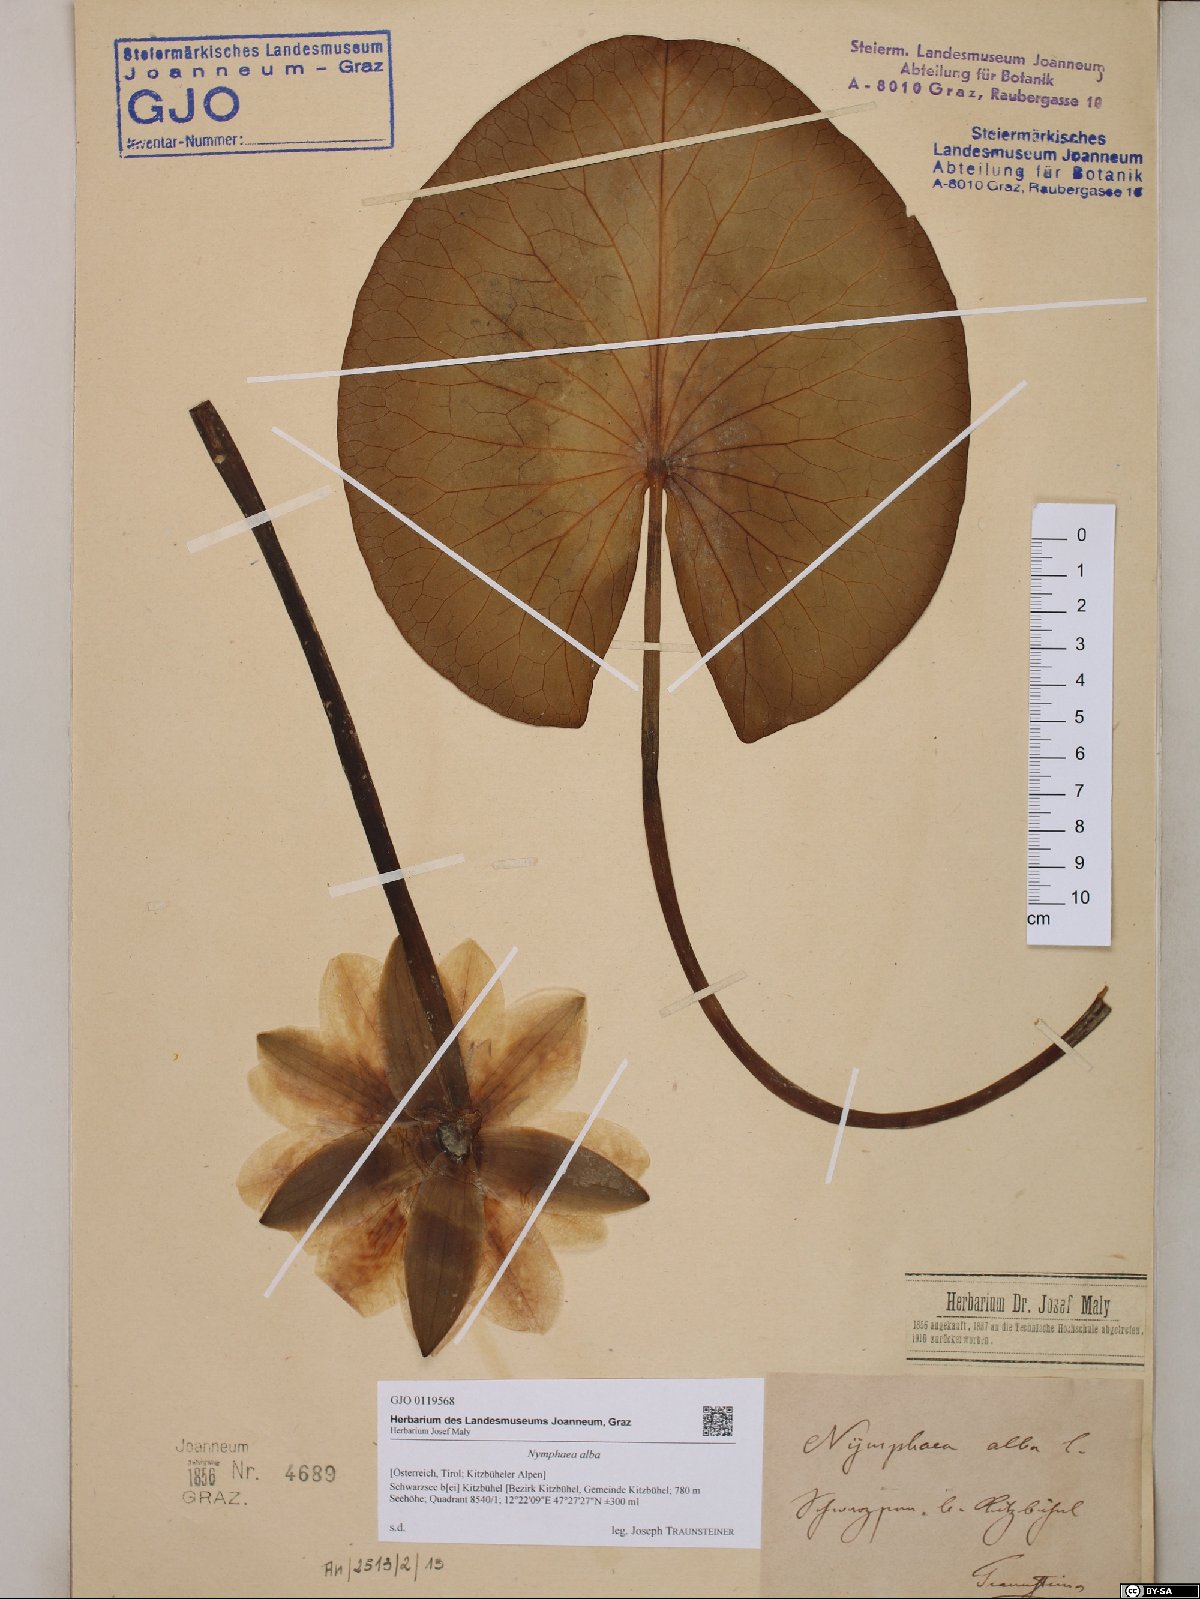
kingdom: Plantae
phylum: Tracheophyta
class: Magnoliopsida
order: Nymphaeales
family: Nymphaeaceae
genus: Nymphaea
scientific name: Nymphaea alba
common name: White water-lily
